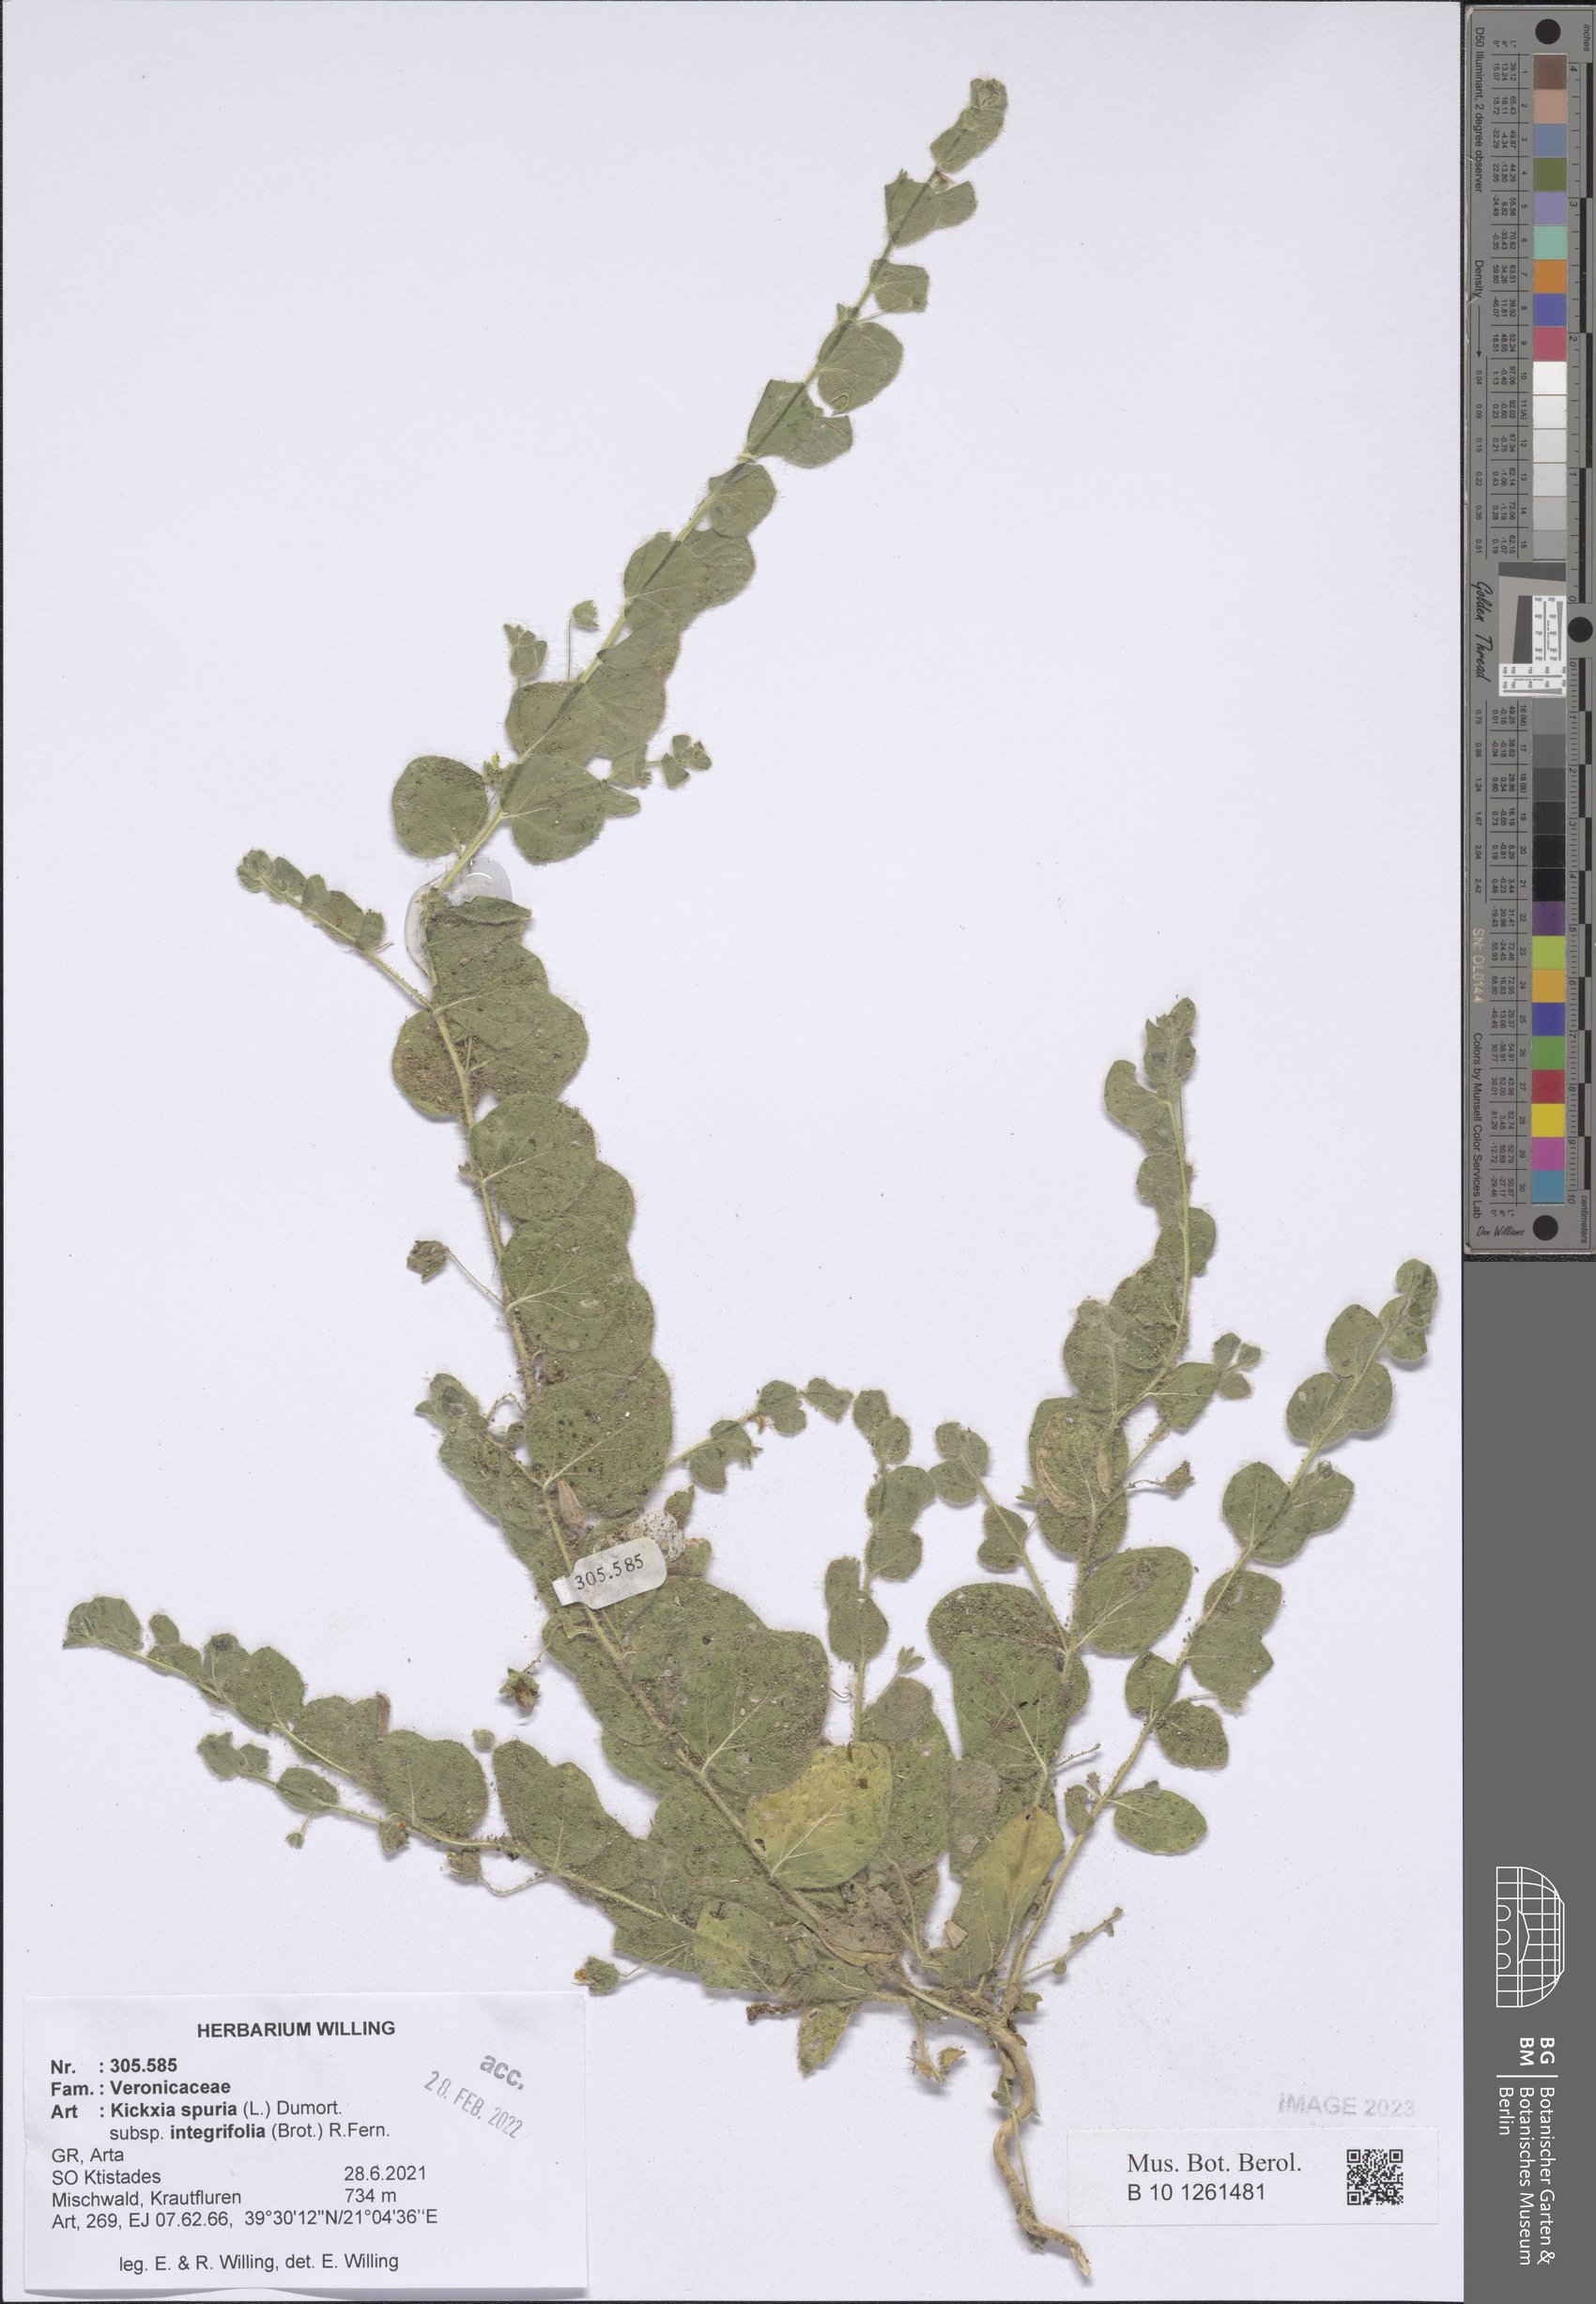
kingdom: Plantae
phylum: Tracheophyta
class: Magnoliopsida
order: Lamiales
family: Plantaginaceae
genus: Kickxia
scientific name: Kickxia spuria
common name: Round-leaved fluellen
